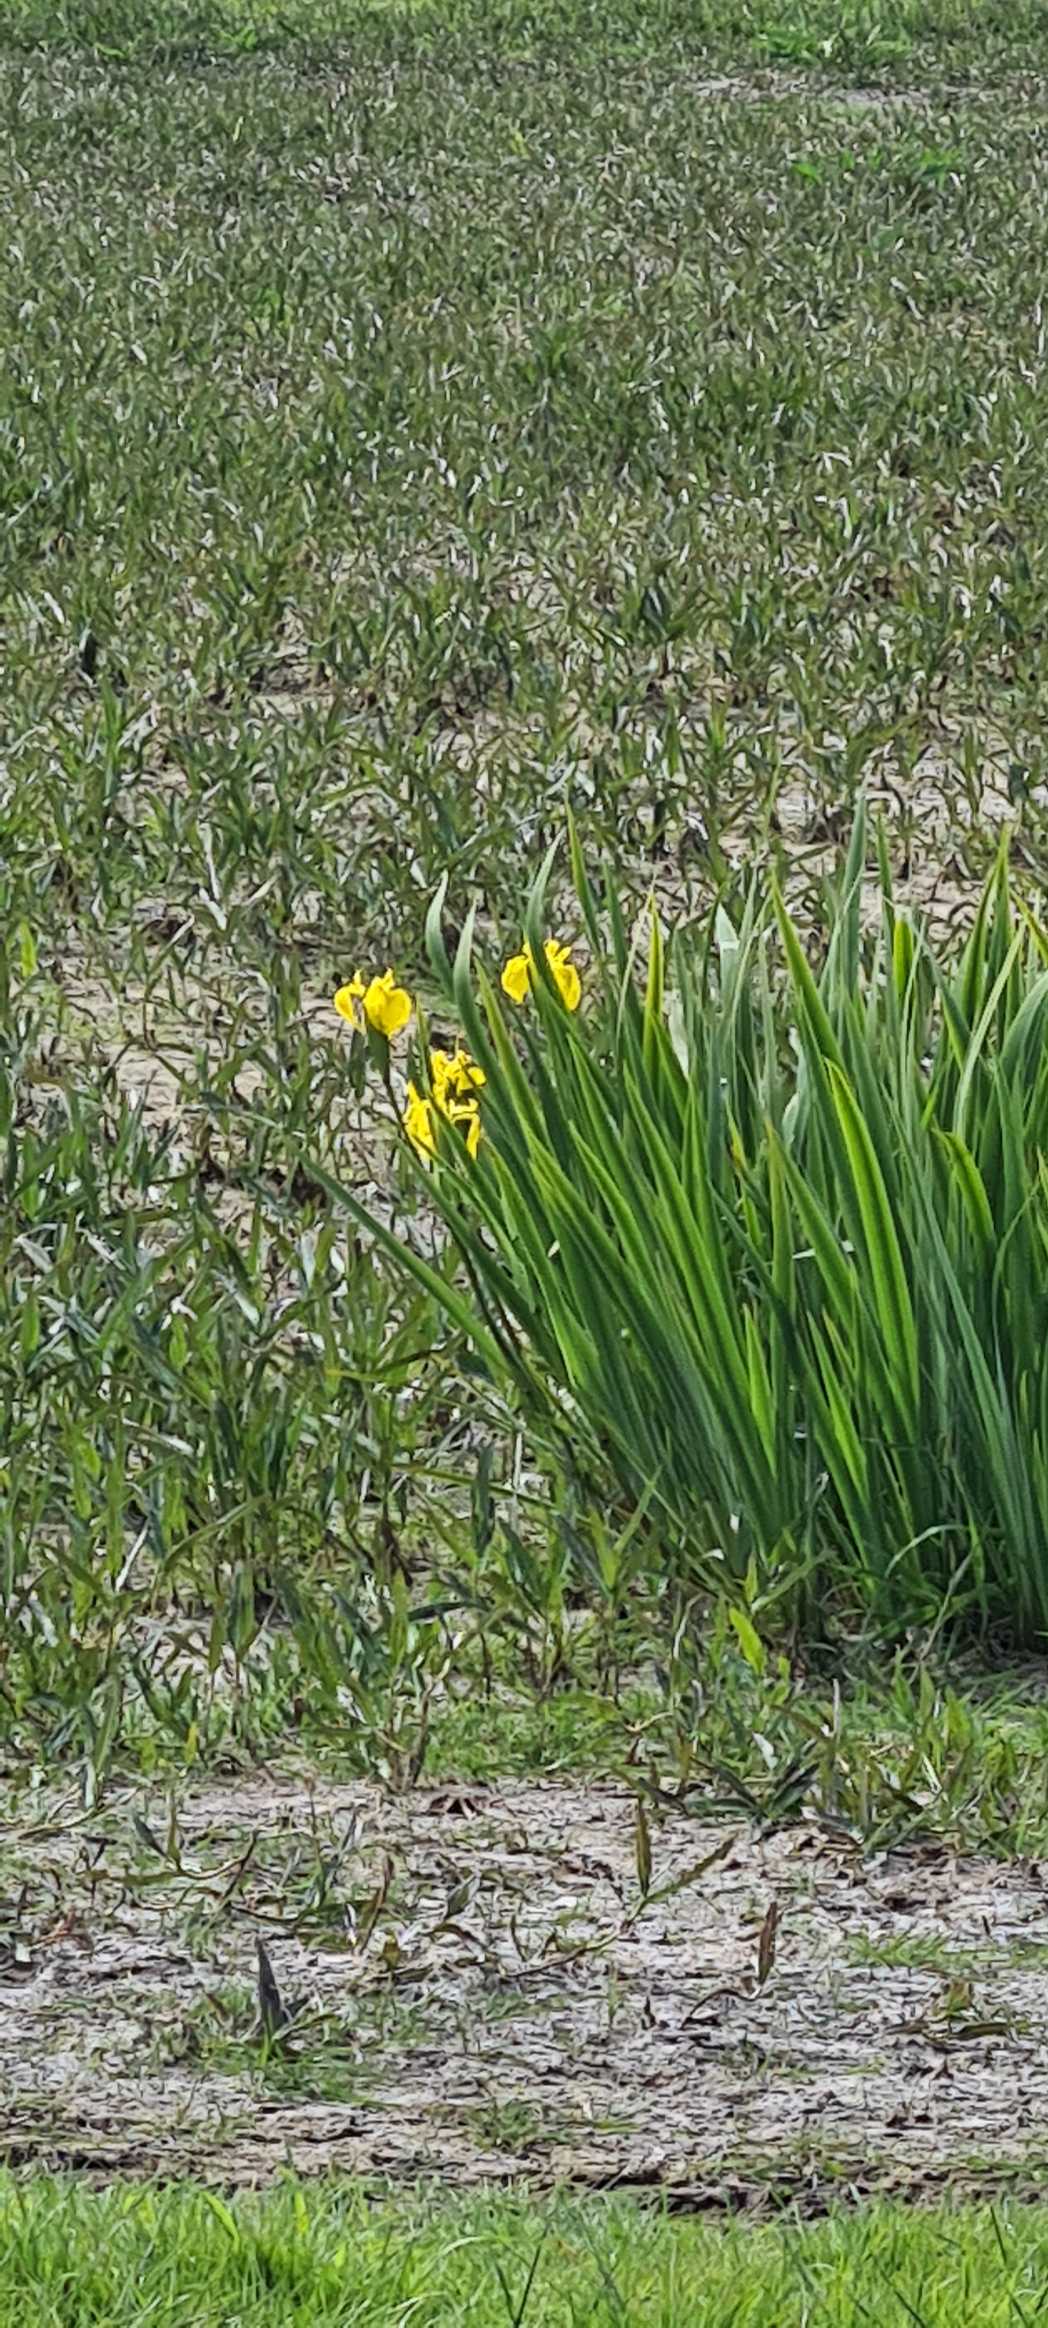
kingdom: Plantae
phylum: Tracheophyta
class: Liliopsida
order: Asparagales
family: Iridaceae
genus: Iris
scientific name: Iris pseudacorus
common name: Gul iris
